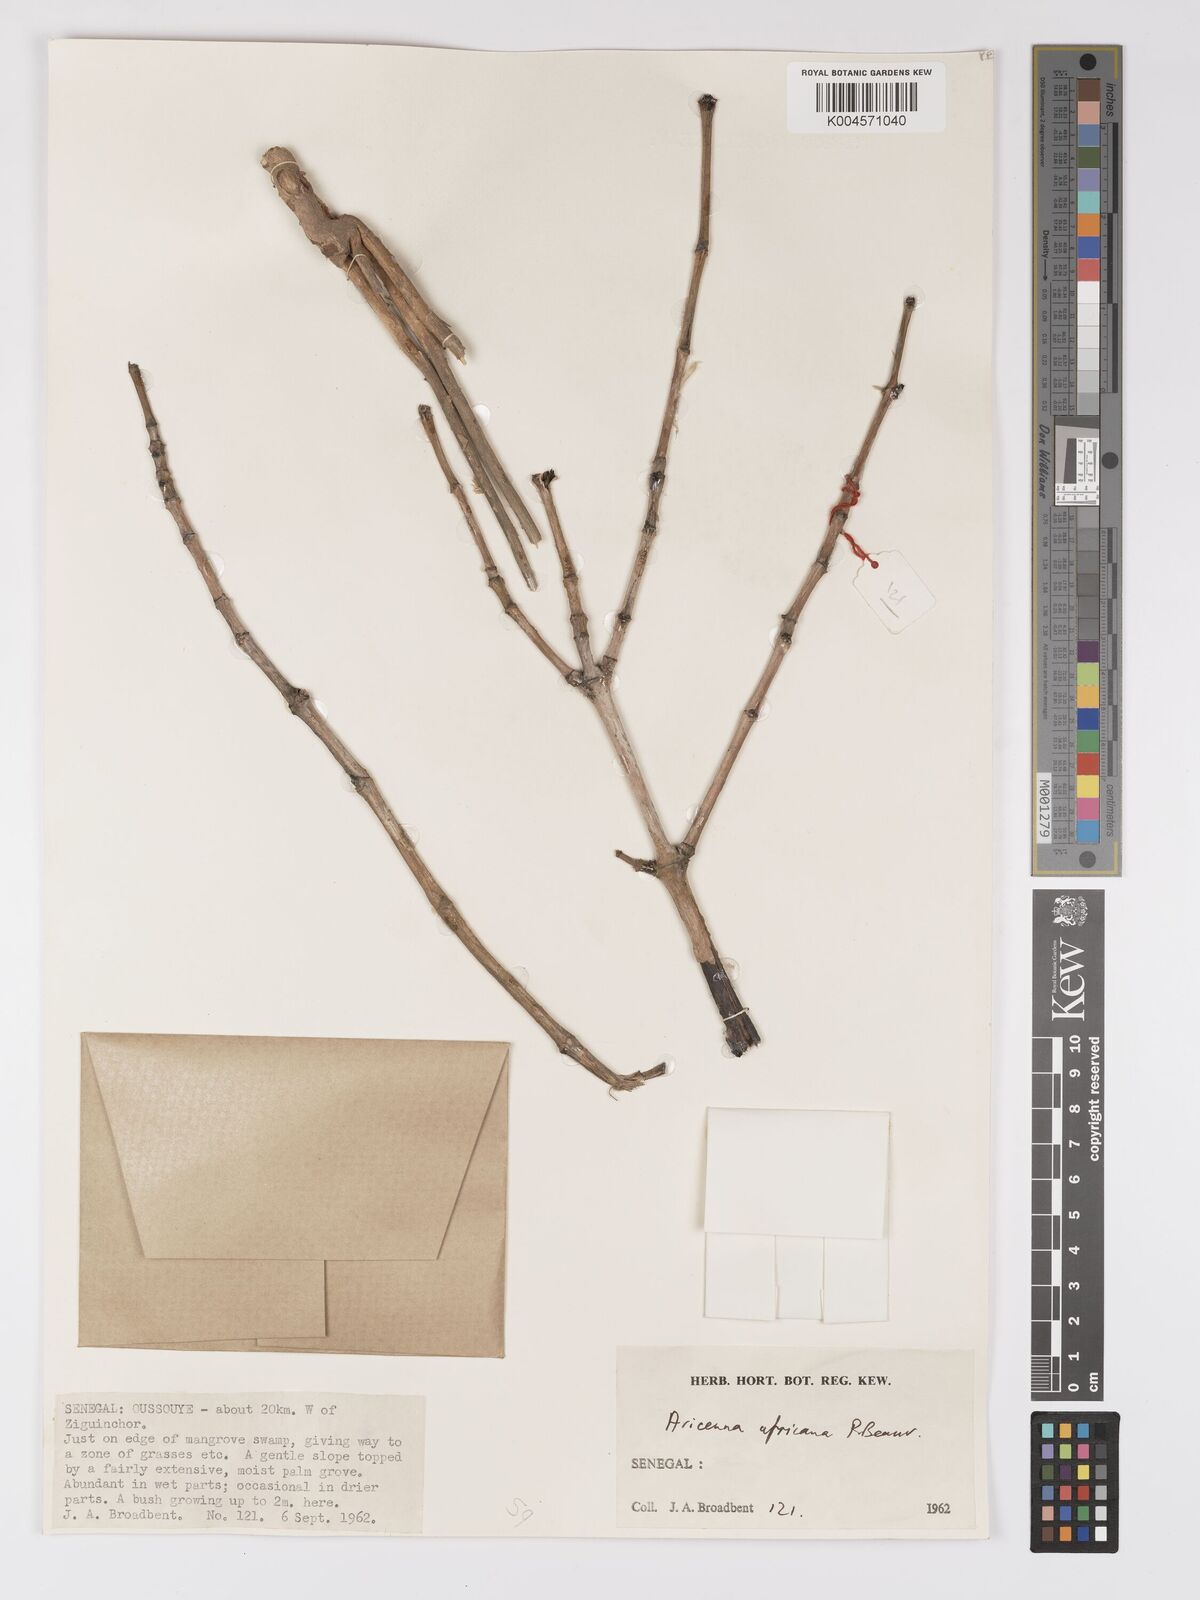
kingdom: Plantae
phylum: Tracheophyta
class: Magnoliopsida
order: Lamiales
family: Acanthaceae
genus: Avicennia
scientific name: Avicennia germinans
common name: Black mangrove
